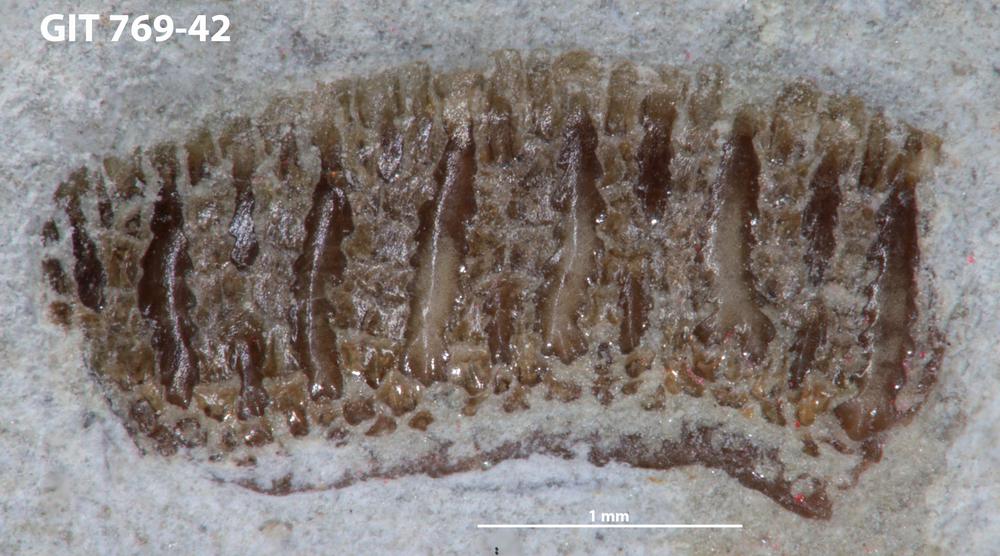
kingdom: Animalia
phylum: Chordata
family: Dartmuthiidae
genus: Dartmuthia
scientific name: Dartmuthia
